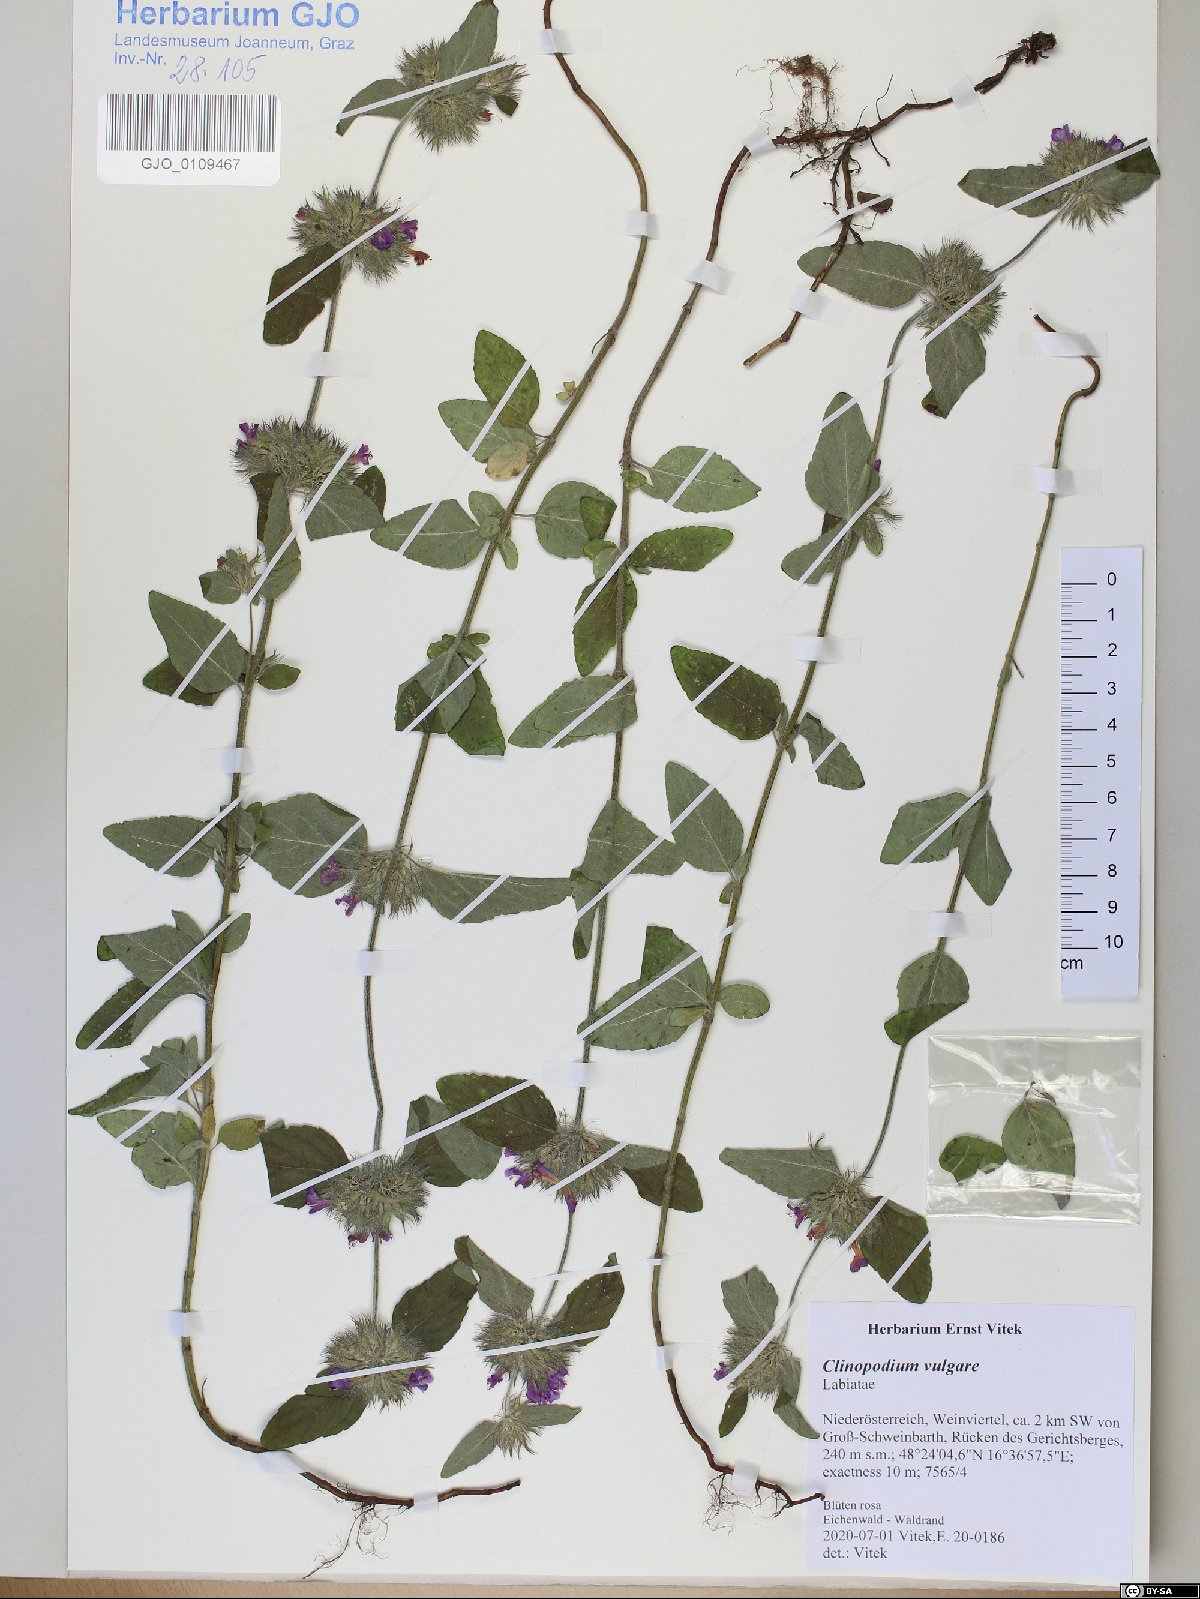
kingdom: Plantae
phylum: Tracheophyta
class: Magnoliopsida
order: Lamiales
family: Lamiaceae
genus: Clinopodium
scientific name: Clinopodium vulgare
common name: Wild basil
